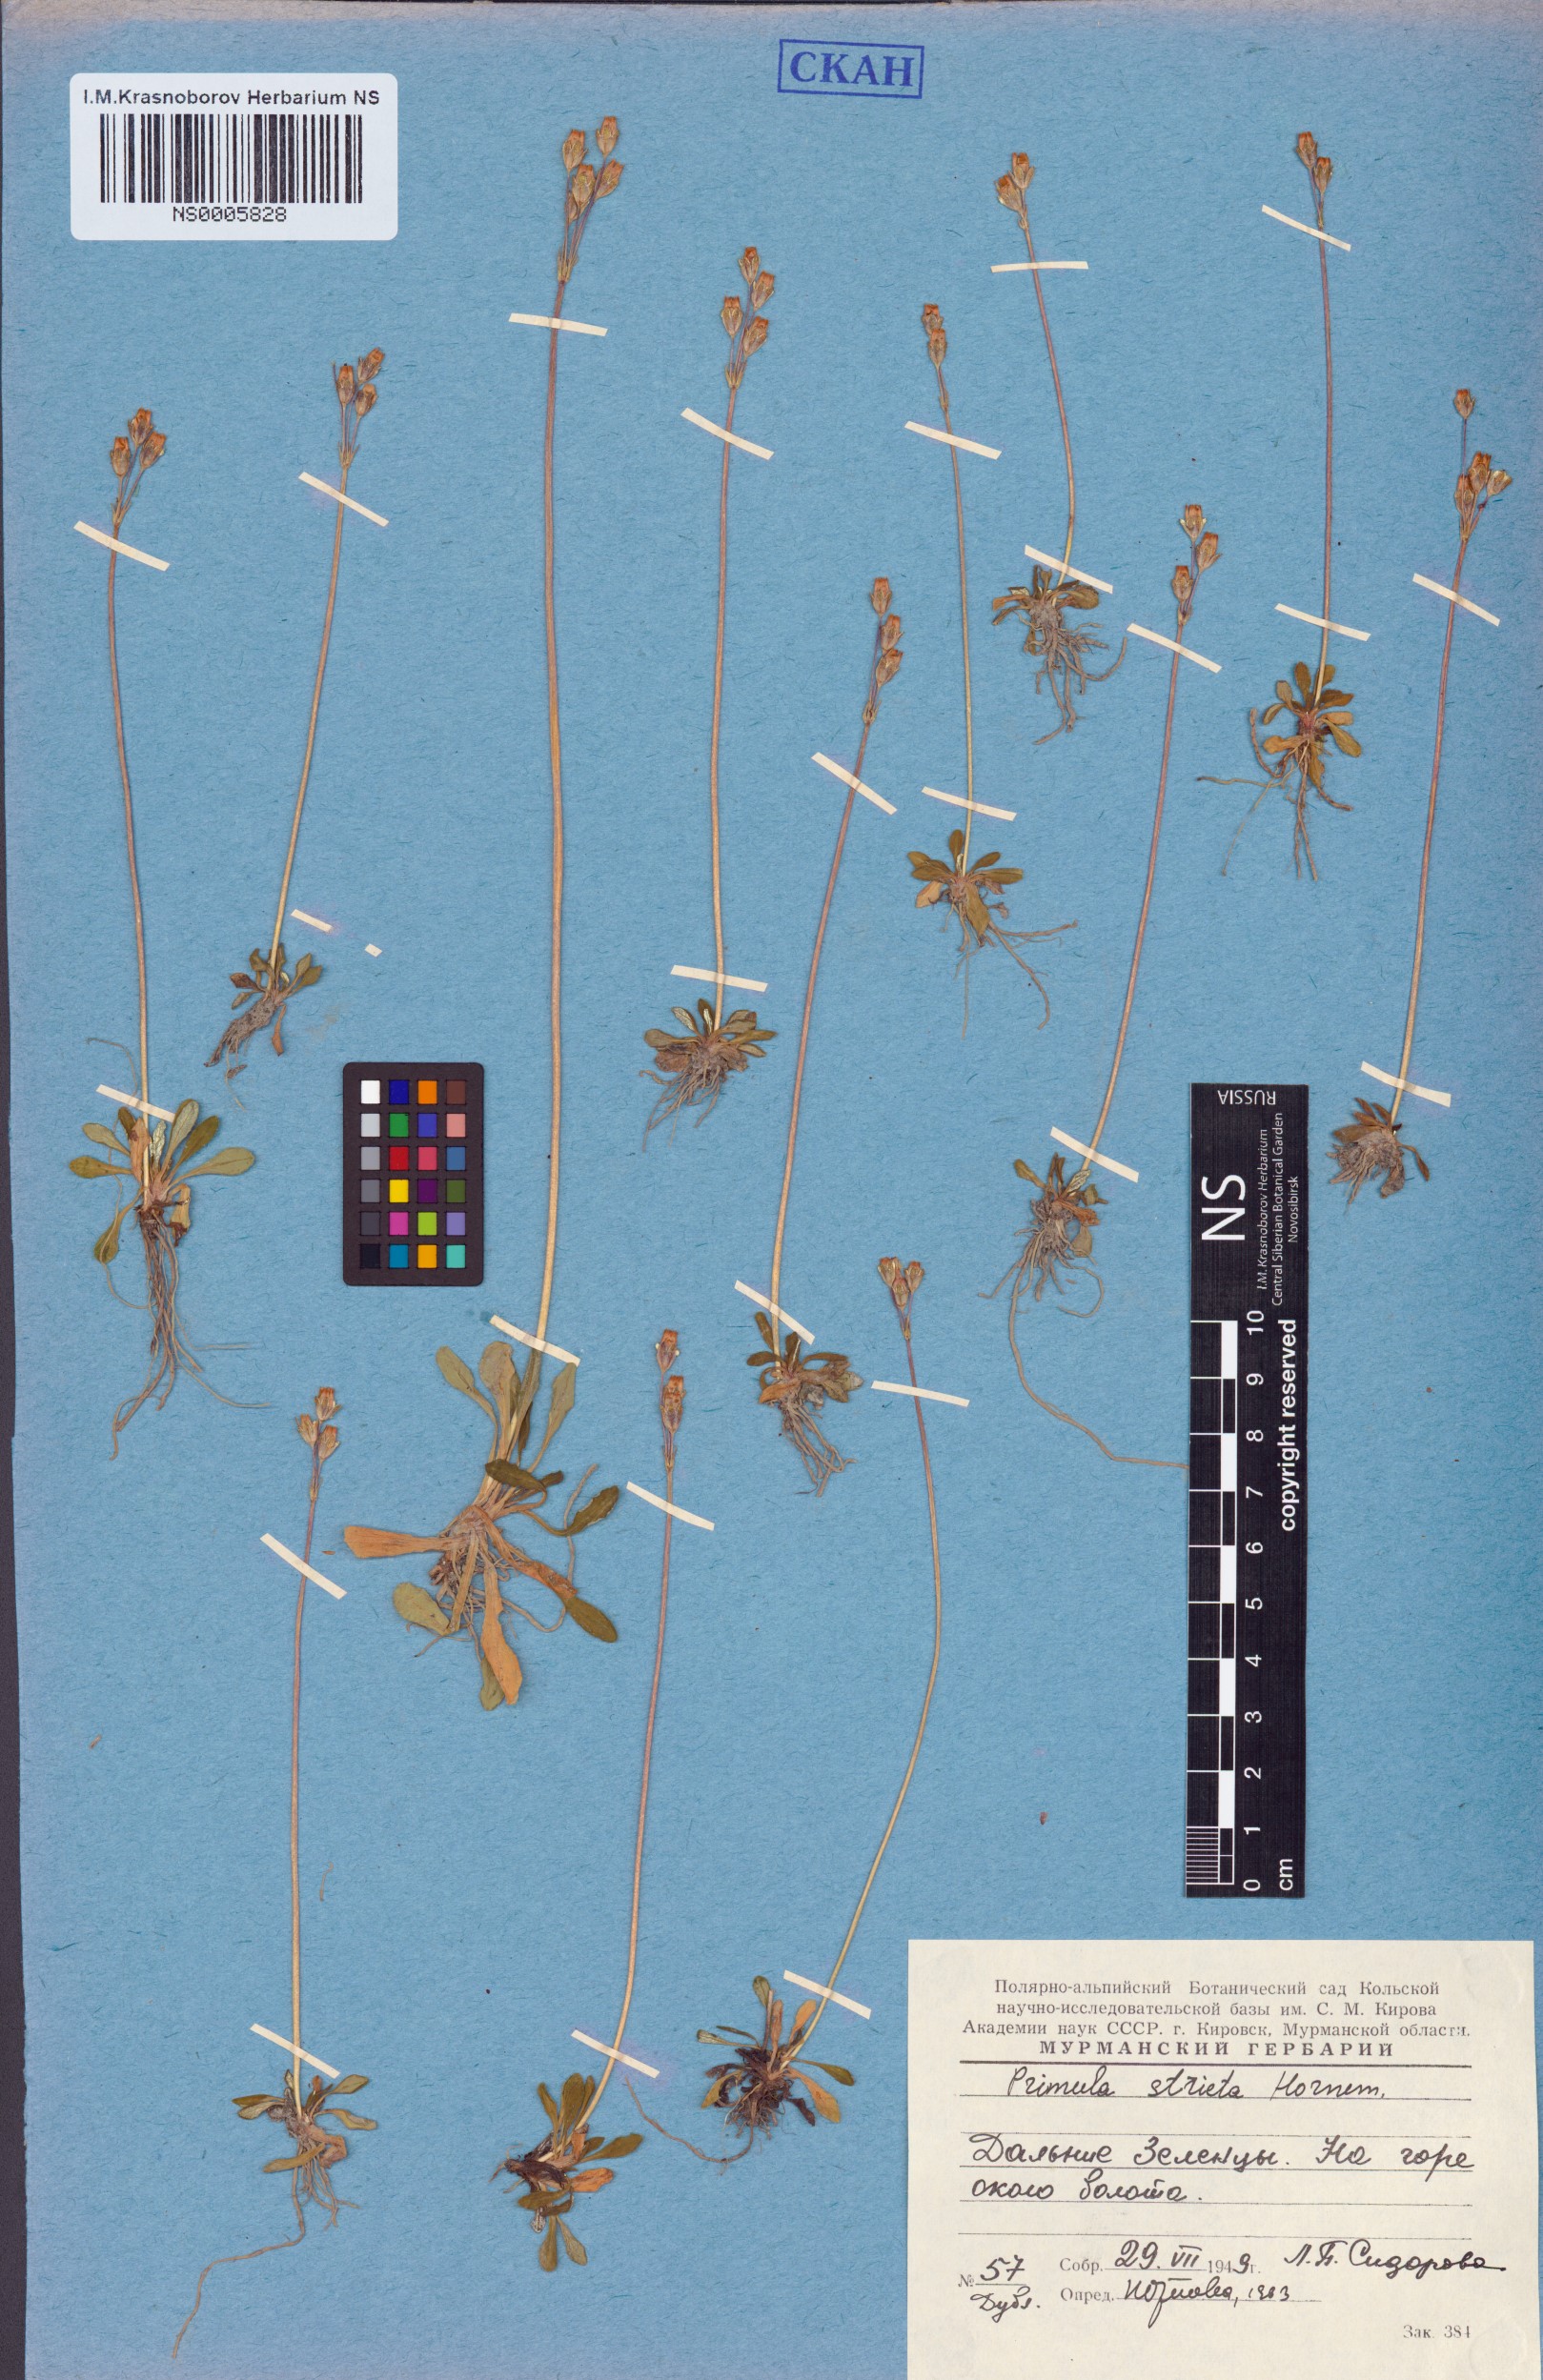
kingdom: Plantae
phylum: Tracheophyta
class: Magnoliopsida
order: Ericales
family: Primulaceae
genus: Primula
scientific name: Primula stricta
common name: Coastal primrose
